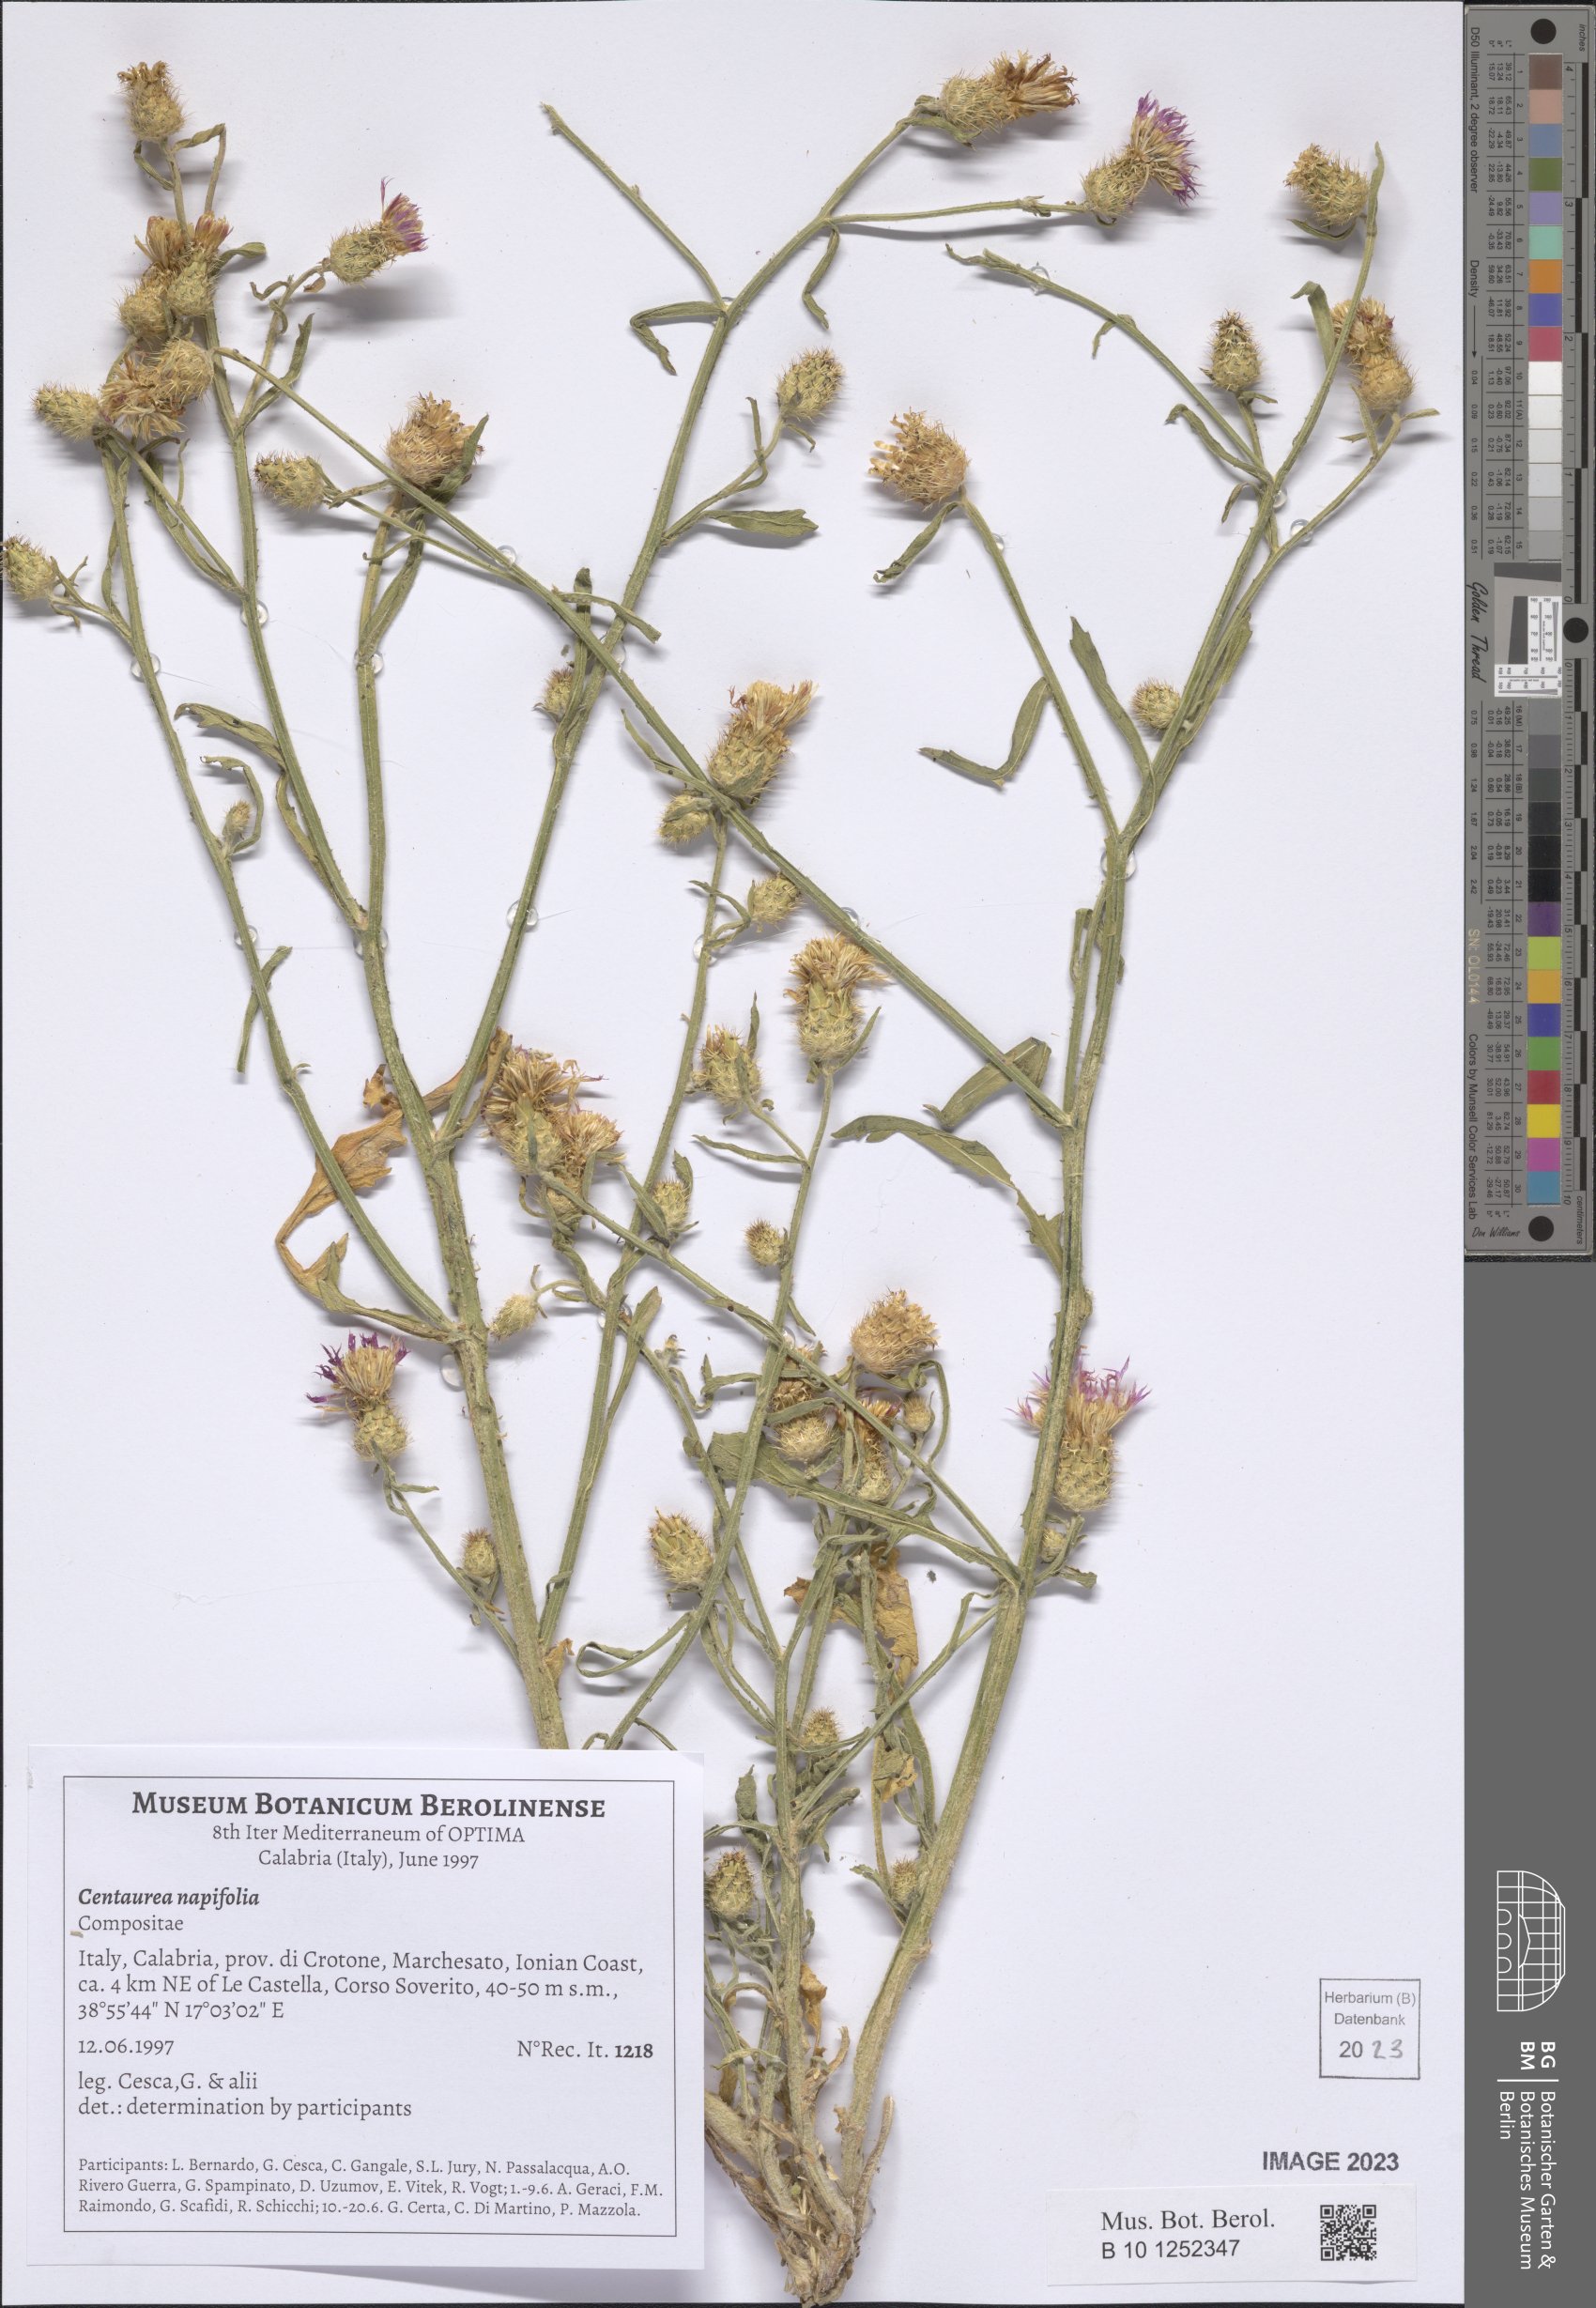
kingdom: Plantae
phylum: Tracheophyta
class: Magnoliopsida
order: Asterales
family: Asteraceae
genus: Centaurea
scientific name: Centaurea napifolia
